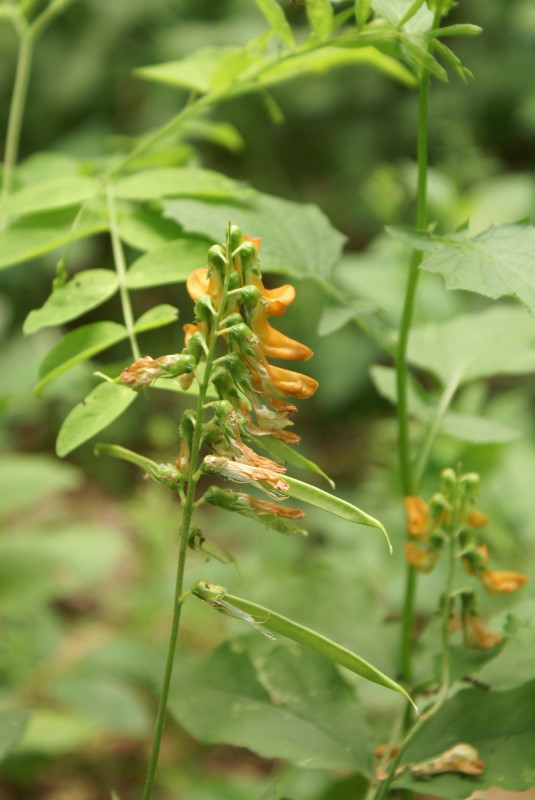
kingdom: Plantae
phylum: Tracheophyta
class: Magnoliopsida
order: Fabales
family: Fabaceae
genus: Lathyrus
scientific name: Lathyrus aureus
